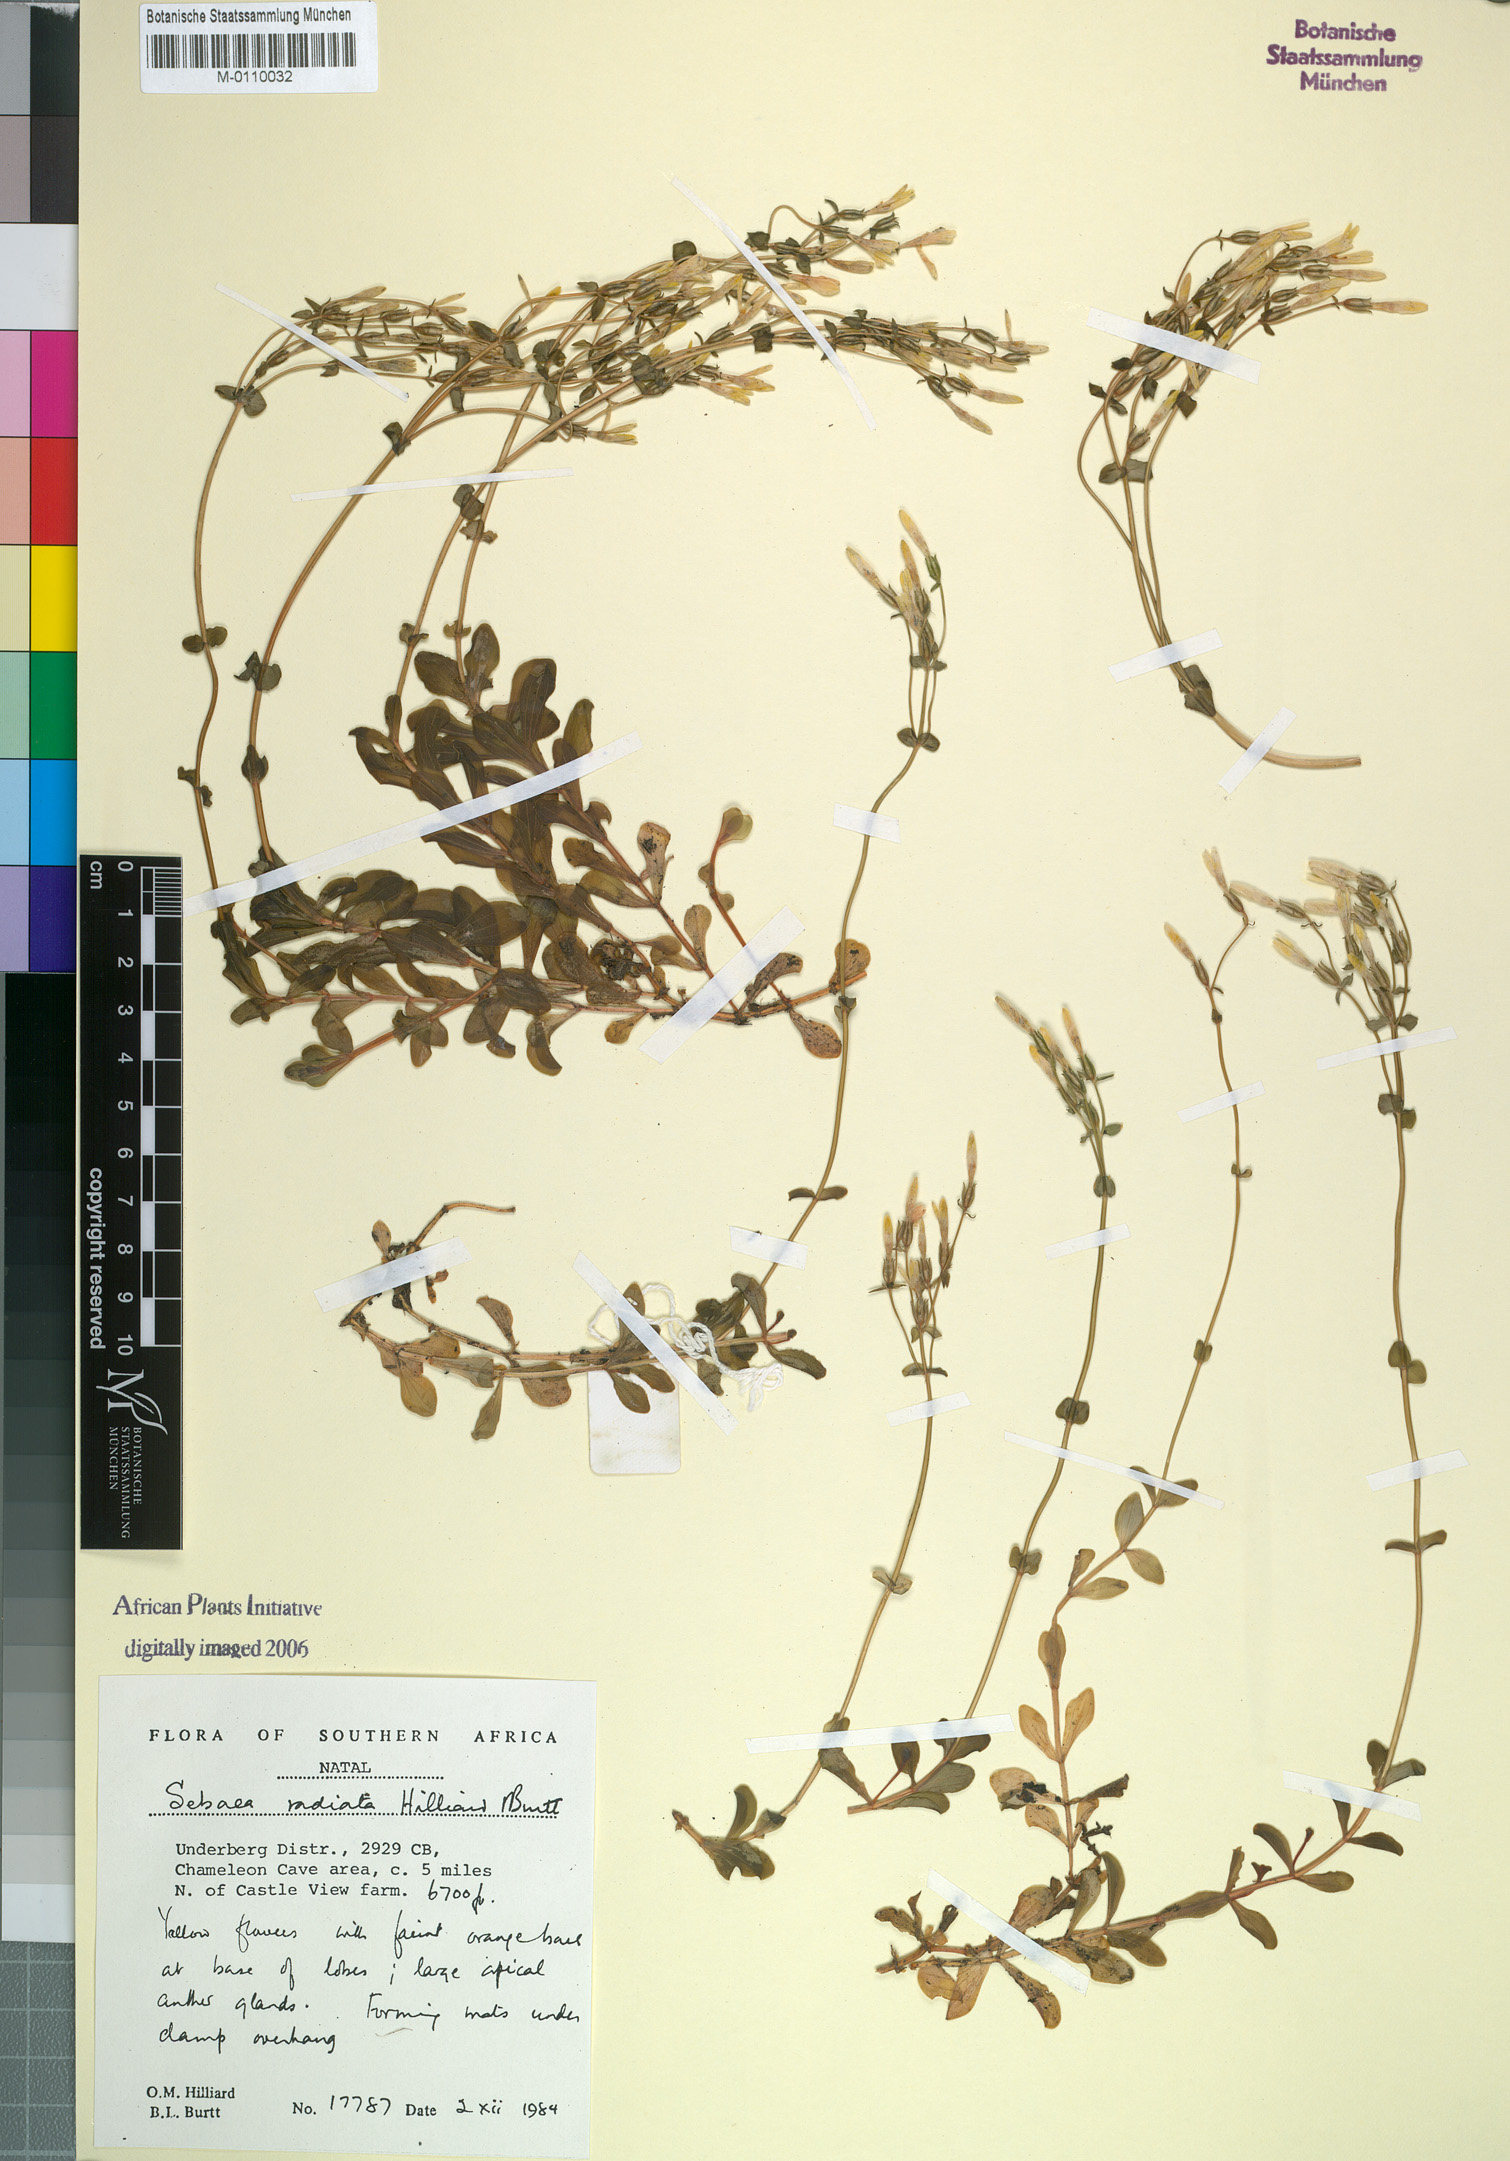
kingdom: Plantae
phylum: Tracheophyta
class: Magnoliopsida
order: Gentianales
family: Gentianaceae
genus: Sebaea
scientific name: Sebaea radiata
